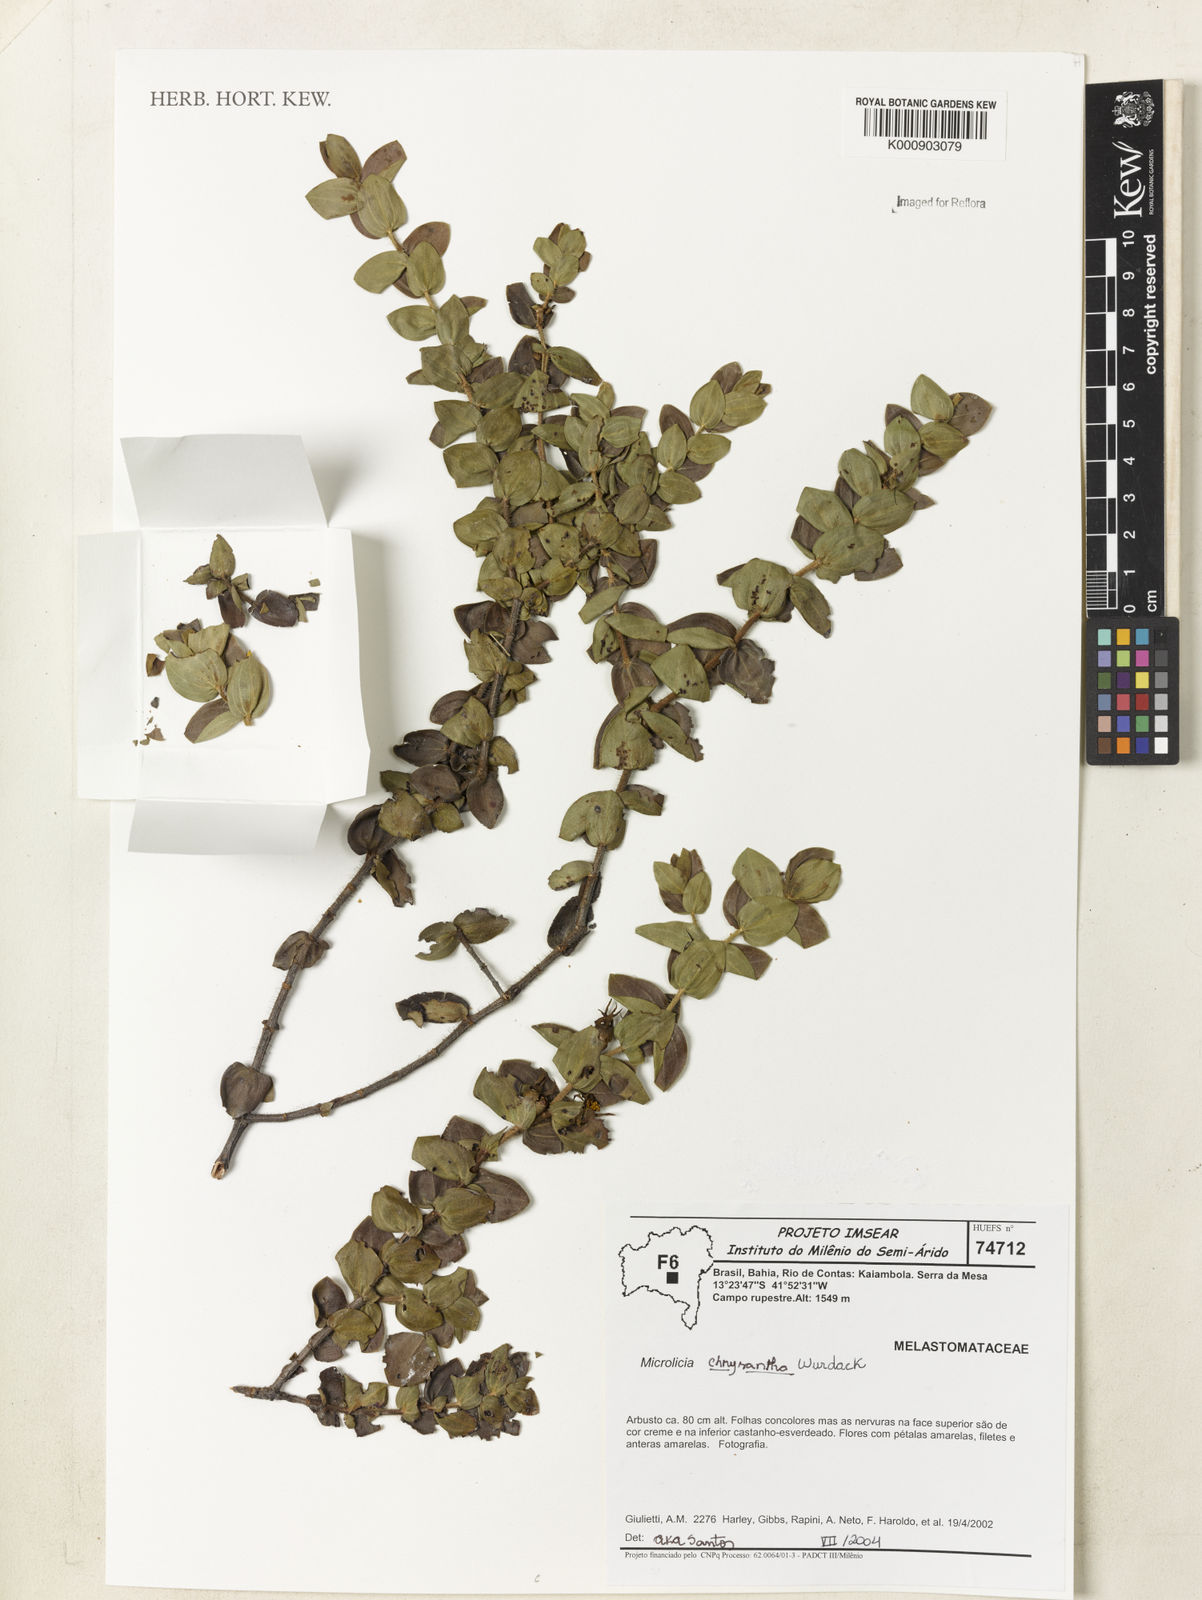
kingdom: Plantae
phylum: Tracheophyta
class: Magnoliopsida
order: Myrtales
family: Melastomataceae
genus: Microlicia
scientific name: Microlicia chrysantha
